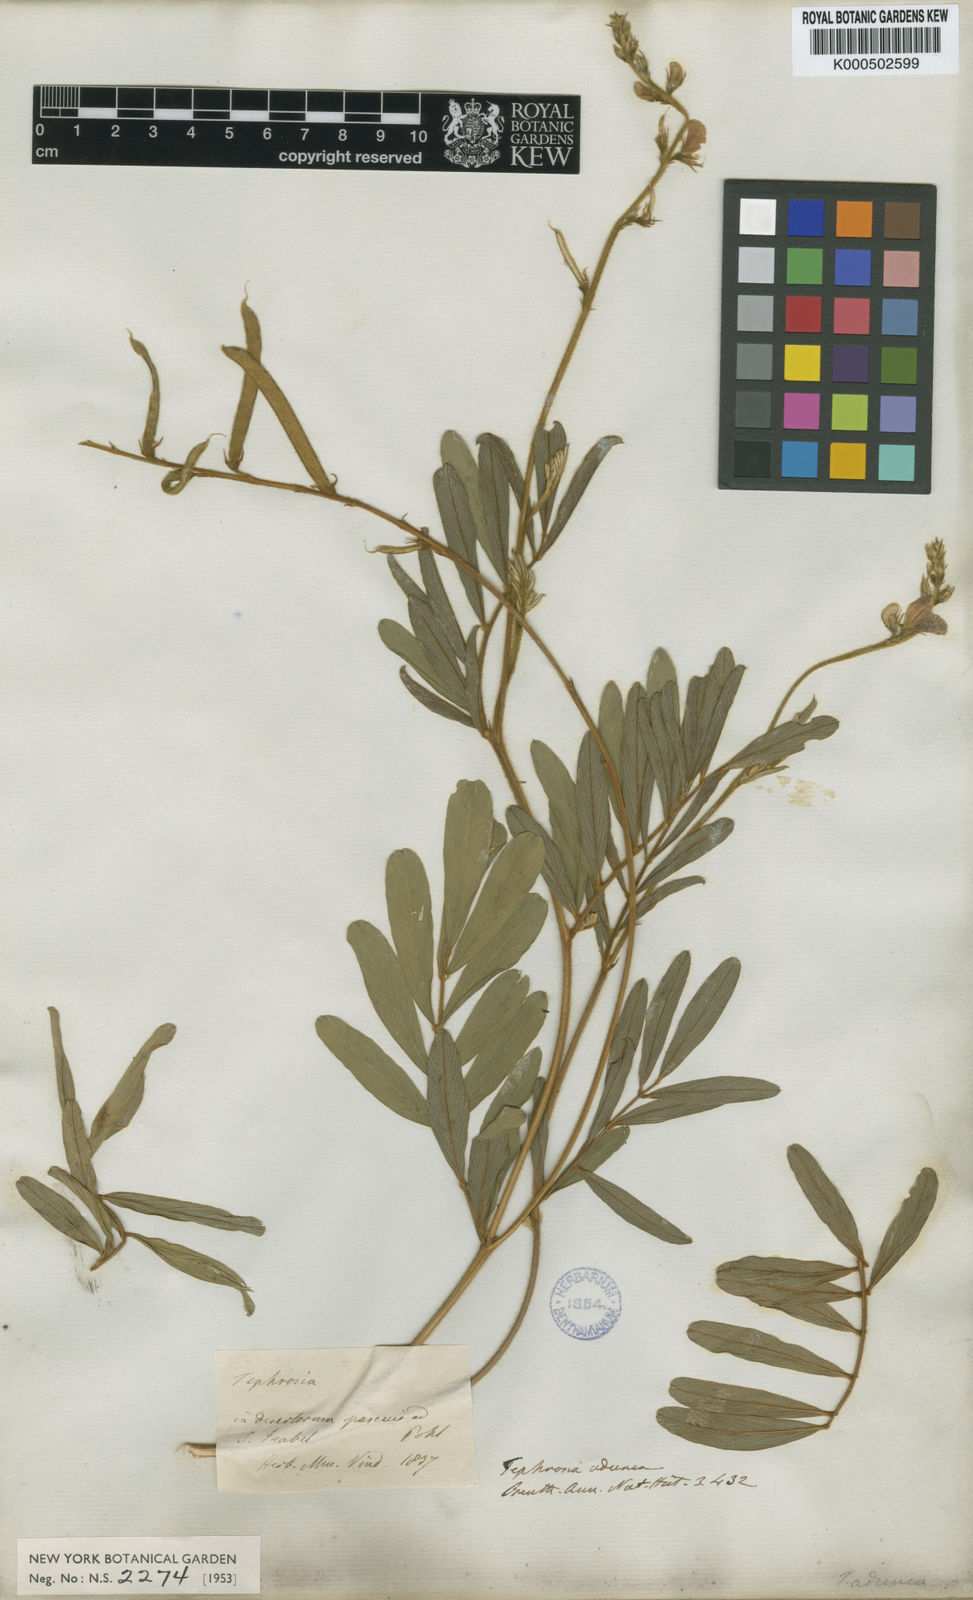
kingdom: Plantae
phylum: Tracheophyta
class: Magnoliopsida
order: Fabales
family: Fabaceae
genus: Tephrosia
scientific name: Tephrosia adunca
